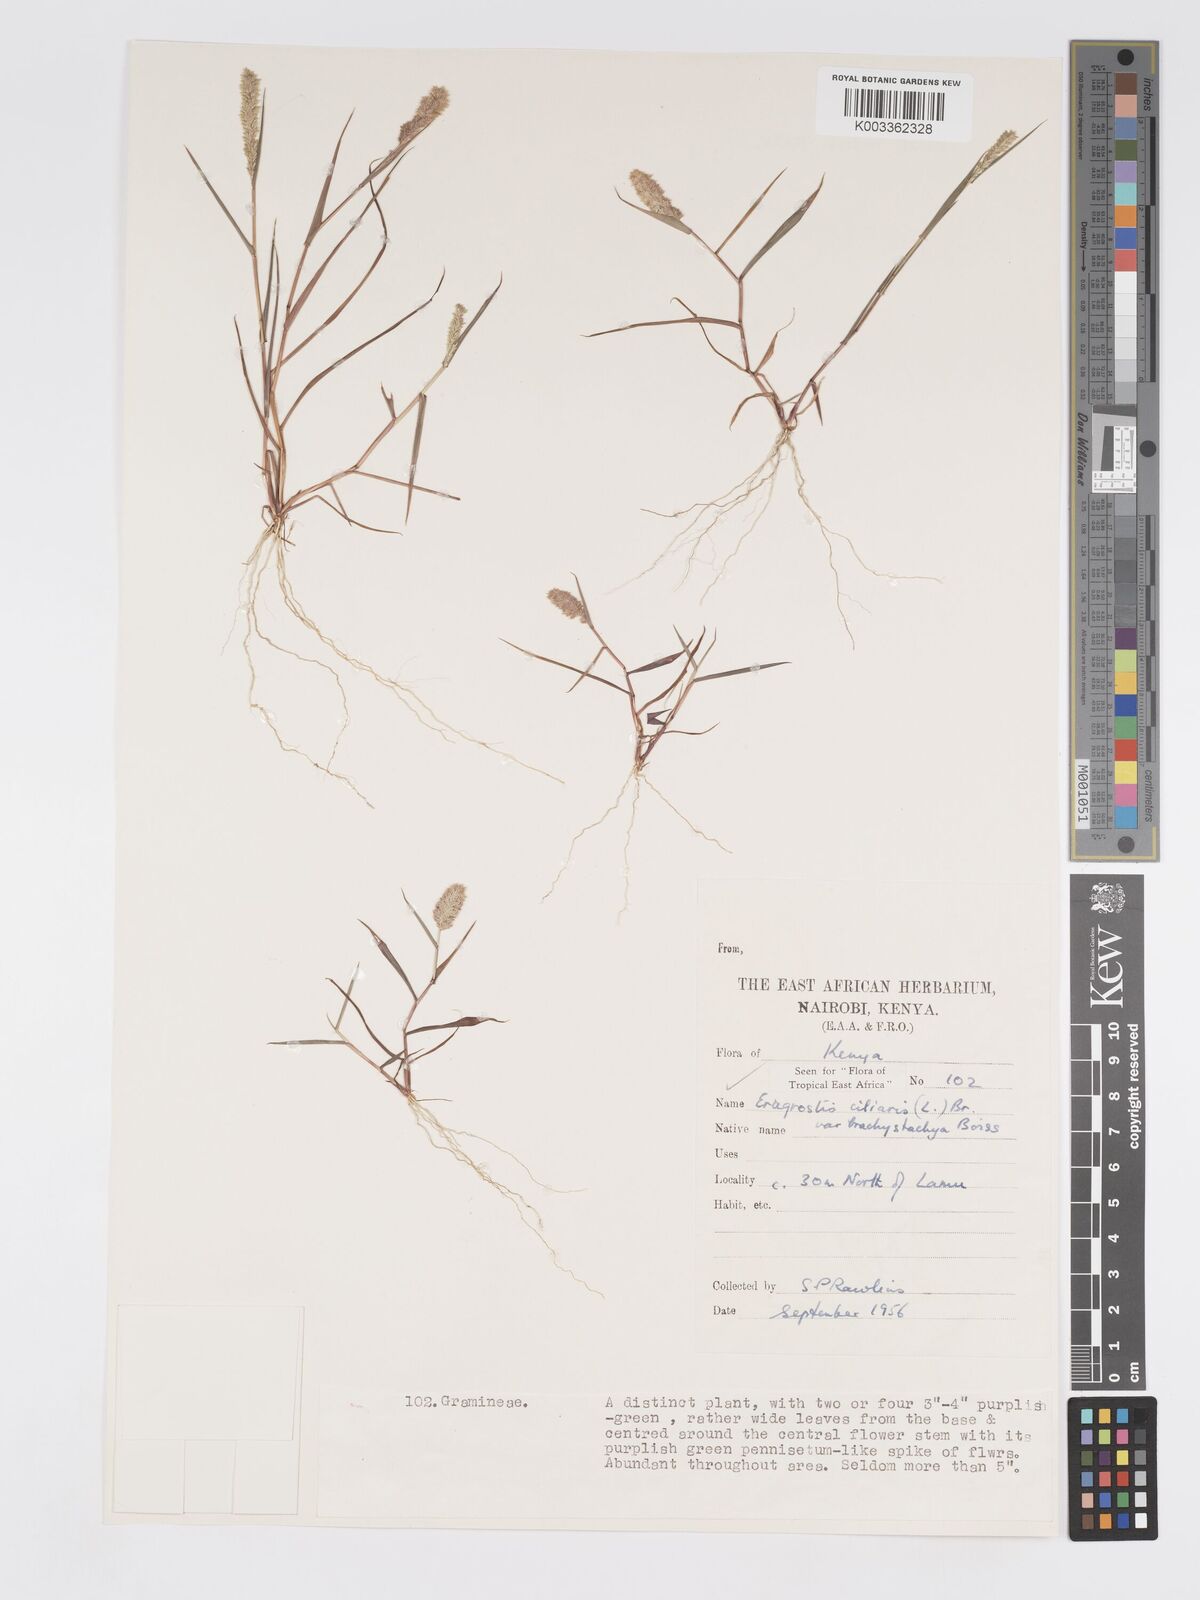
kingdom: Plantae
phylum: Tracheophyta
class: Liliopsida
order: Poales
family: Poaceae
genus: Eragrostis
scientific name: Eragrostis ciliaris
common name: Gophertail lovegrass
